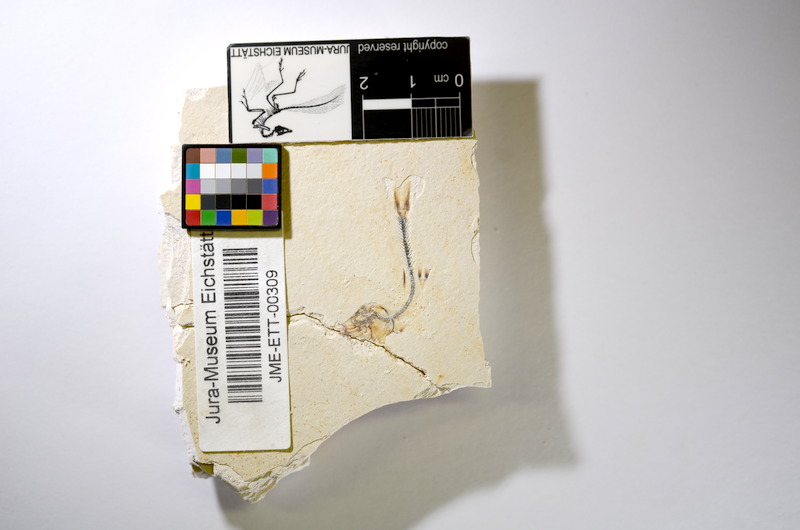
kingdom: Animalia
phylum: Chordata
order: Salmoniformes
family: Orthogonikleithridae
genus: Orthogonikleithrus
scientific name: Orthogonikleithrus hoelli
